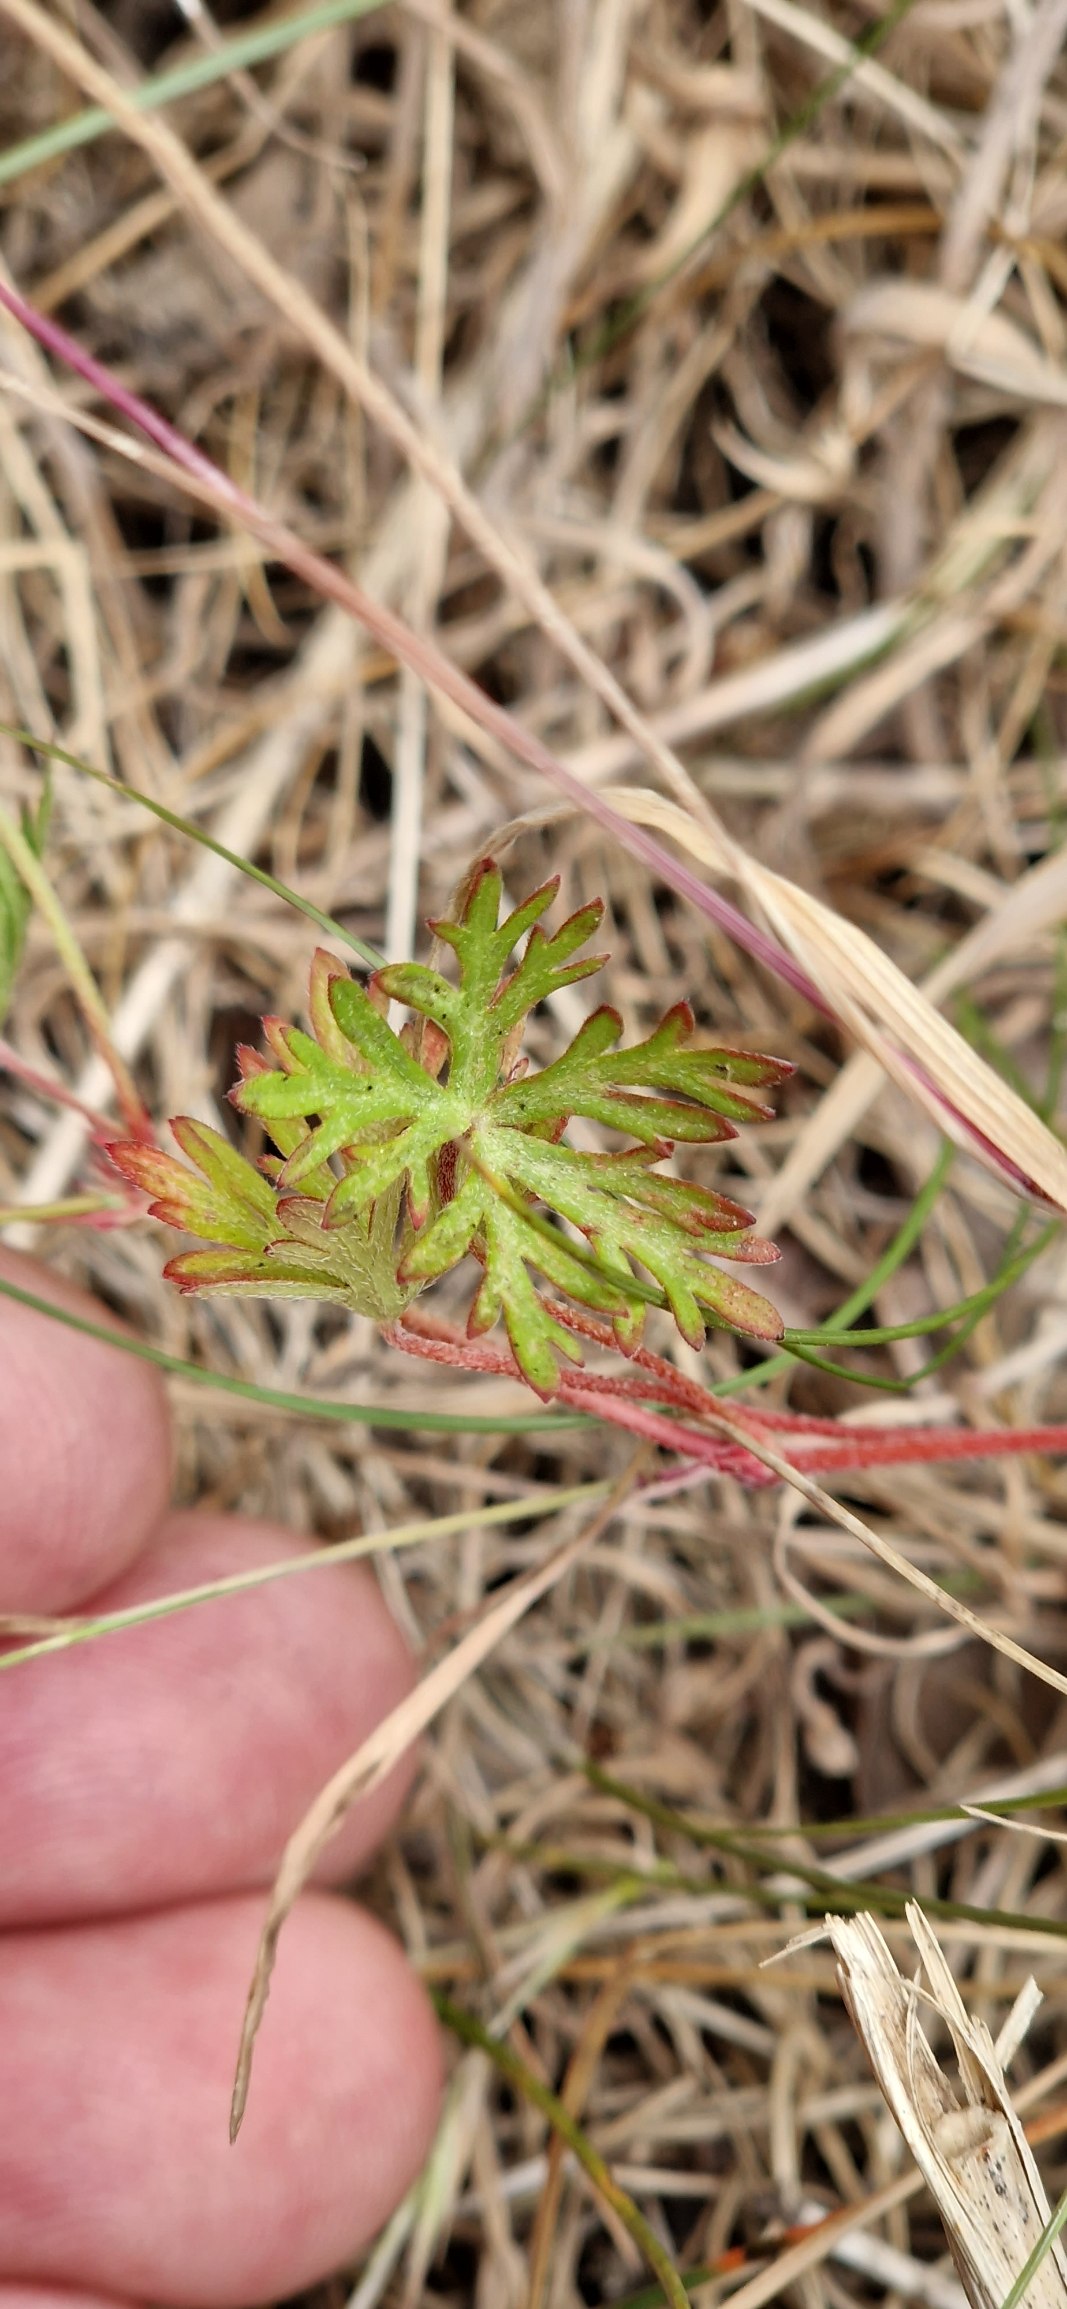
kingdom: Plantae
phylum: Tracheophyta
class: Magnoliopsida
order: Geraniales
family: Geraniaceae
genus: Geranium
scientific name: Geranium columbinum
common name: Storbægret storkenæb
